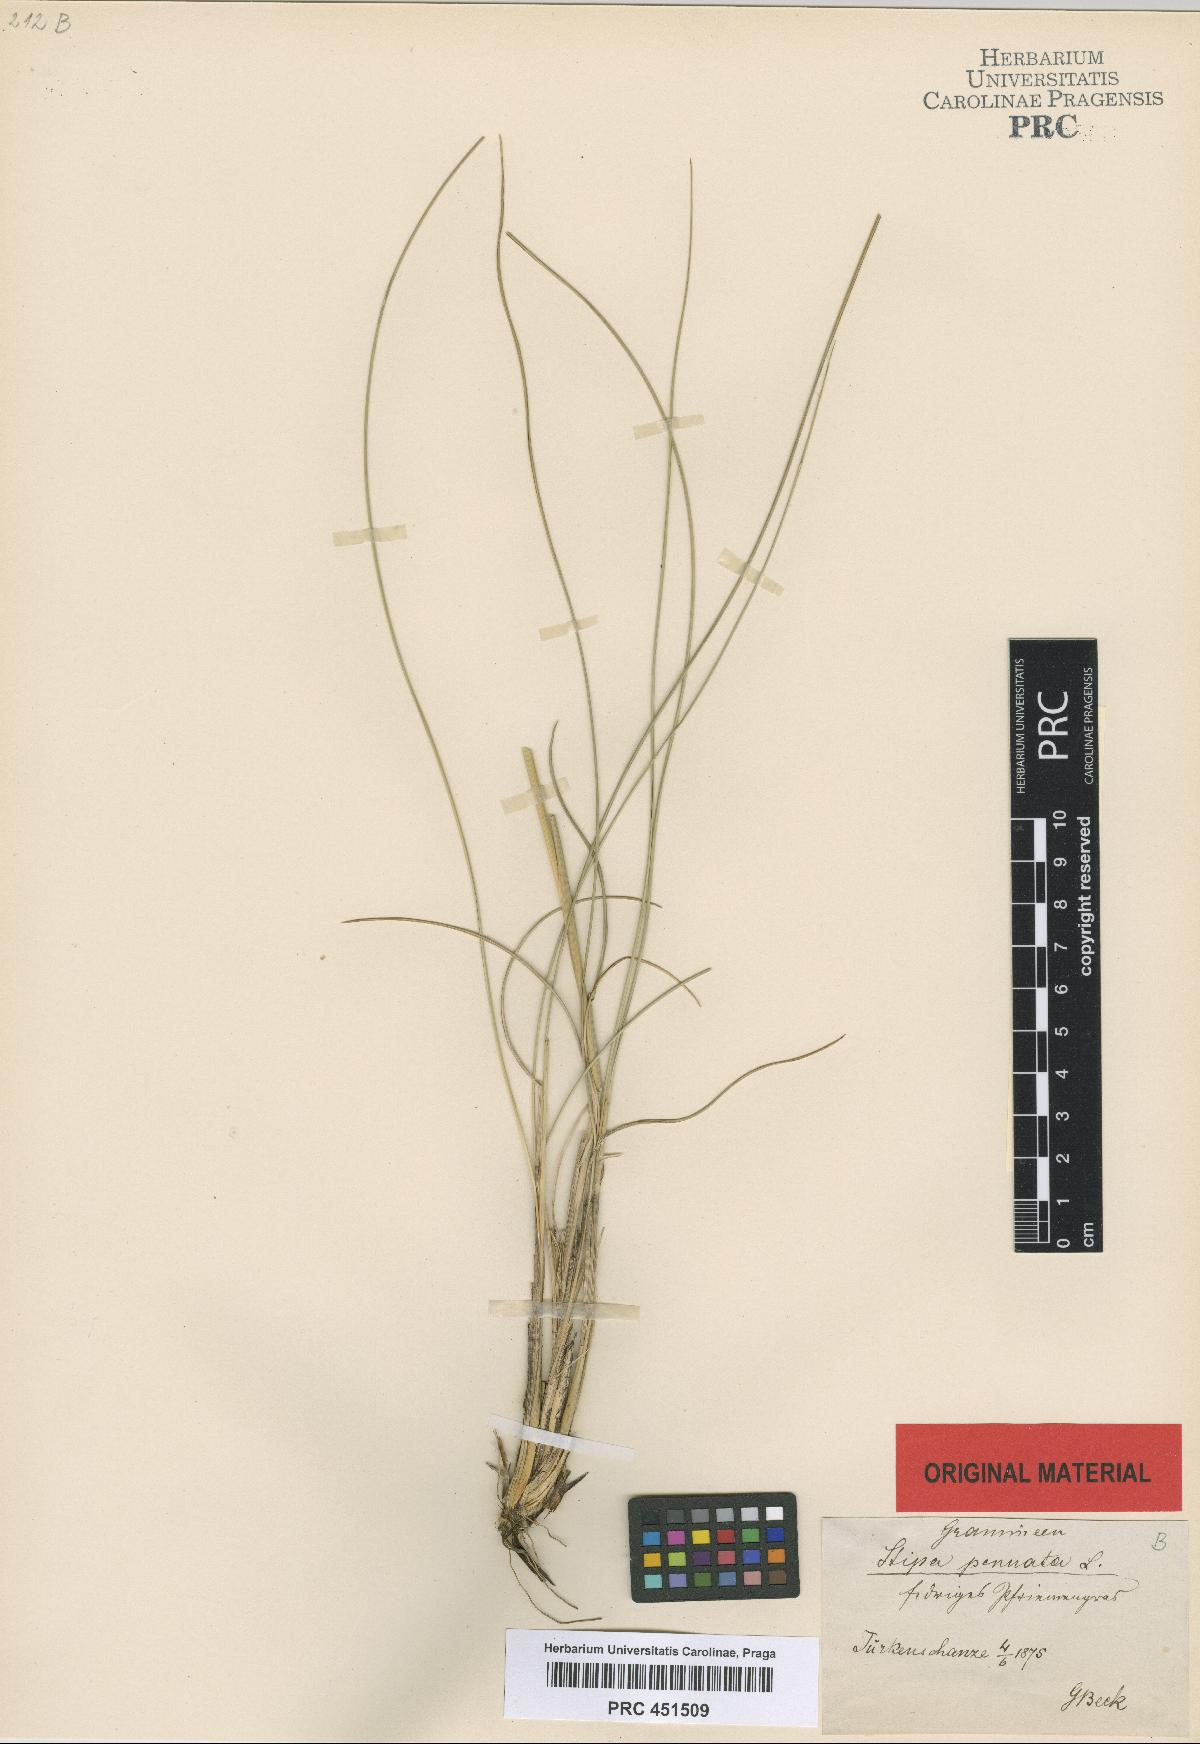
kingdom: Plantae
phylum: Tracheophyta
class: Liliopsida
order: Poales
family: Poaceae
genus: Stipa
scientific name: Stipa pennata
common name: European feather grass
